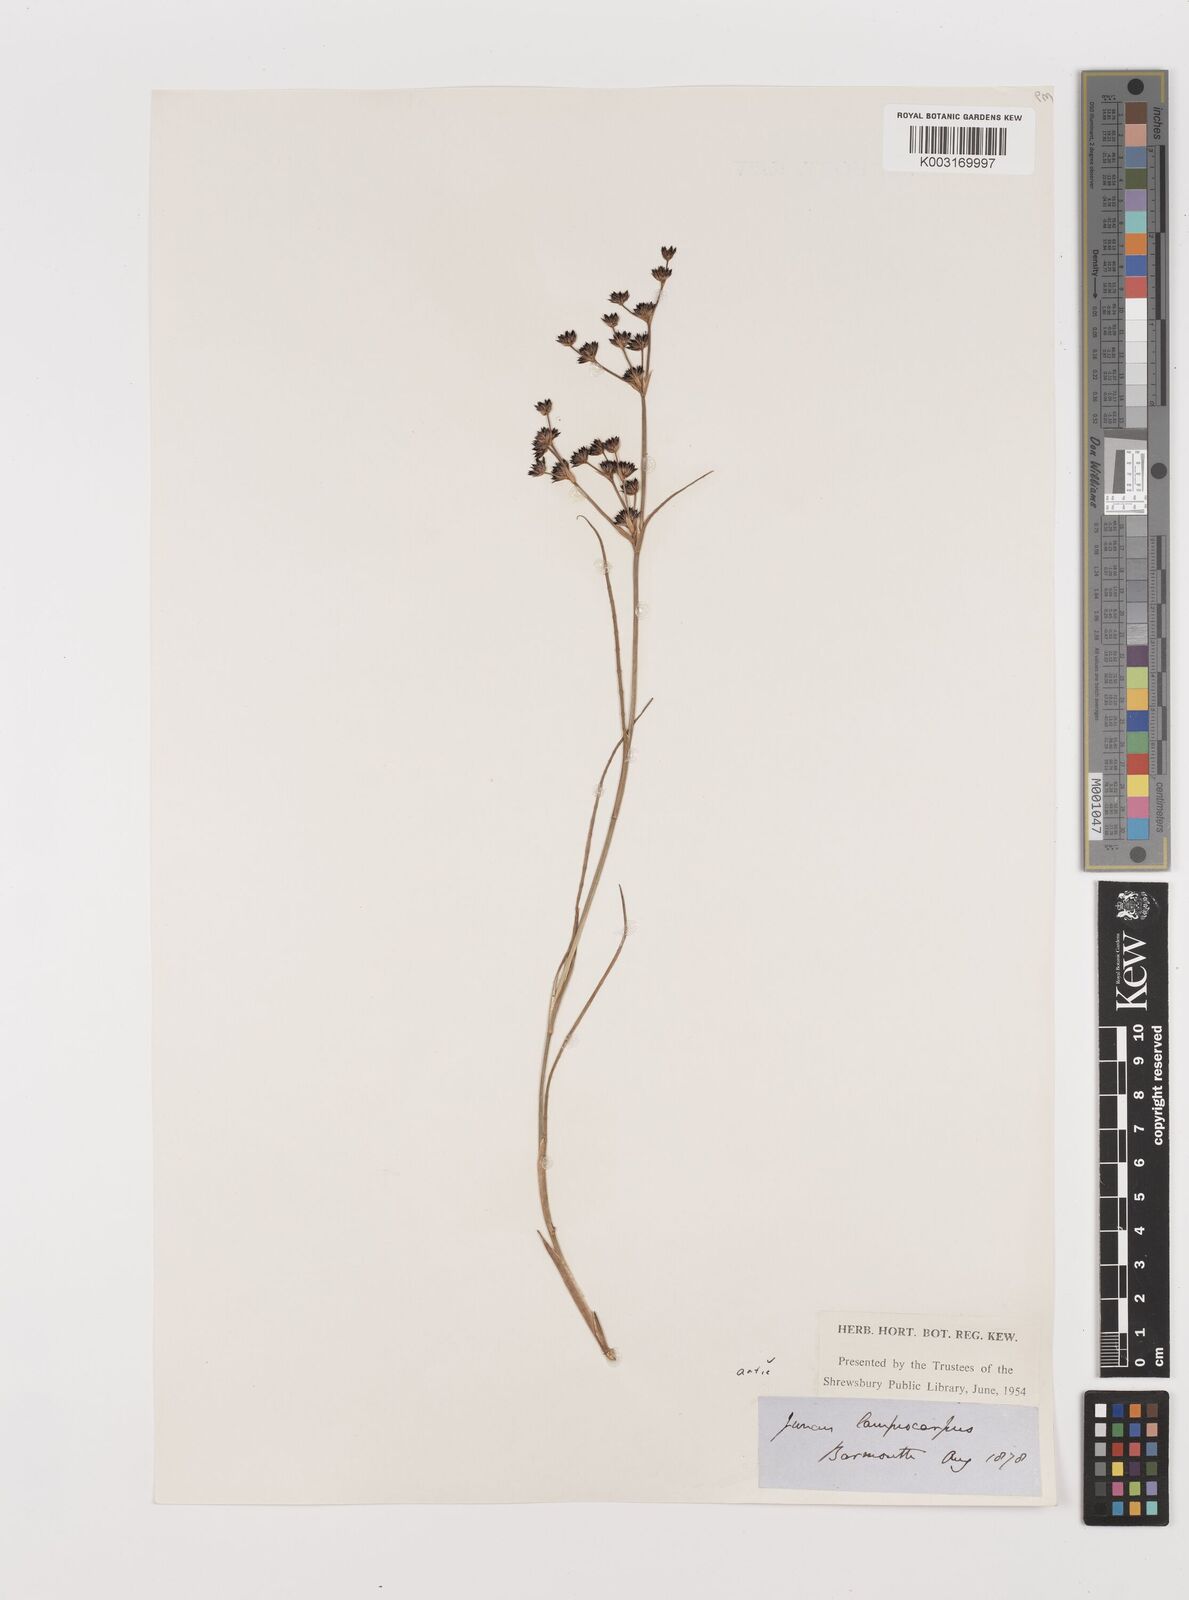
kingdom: Plantae
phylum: Tracheophyta
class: Liliopsida
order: Poales
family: Juncaceae
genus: Juncus
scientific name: Juncus articulatus
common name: Jointed rush
